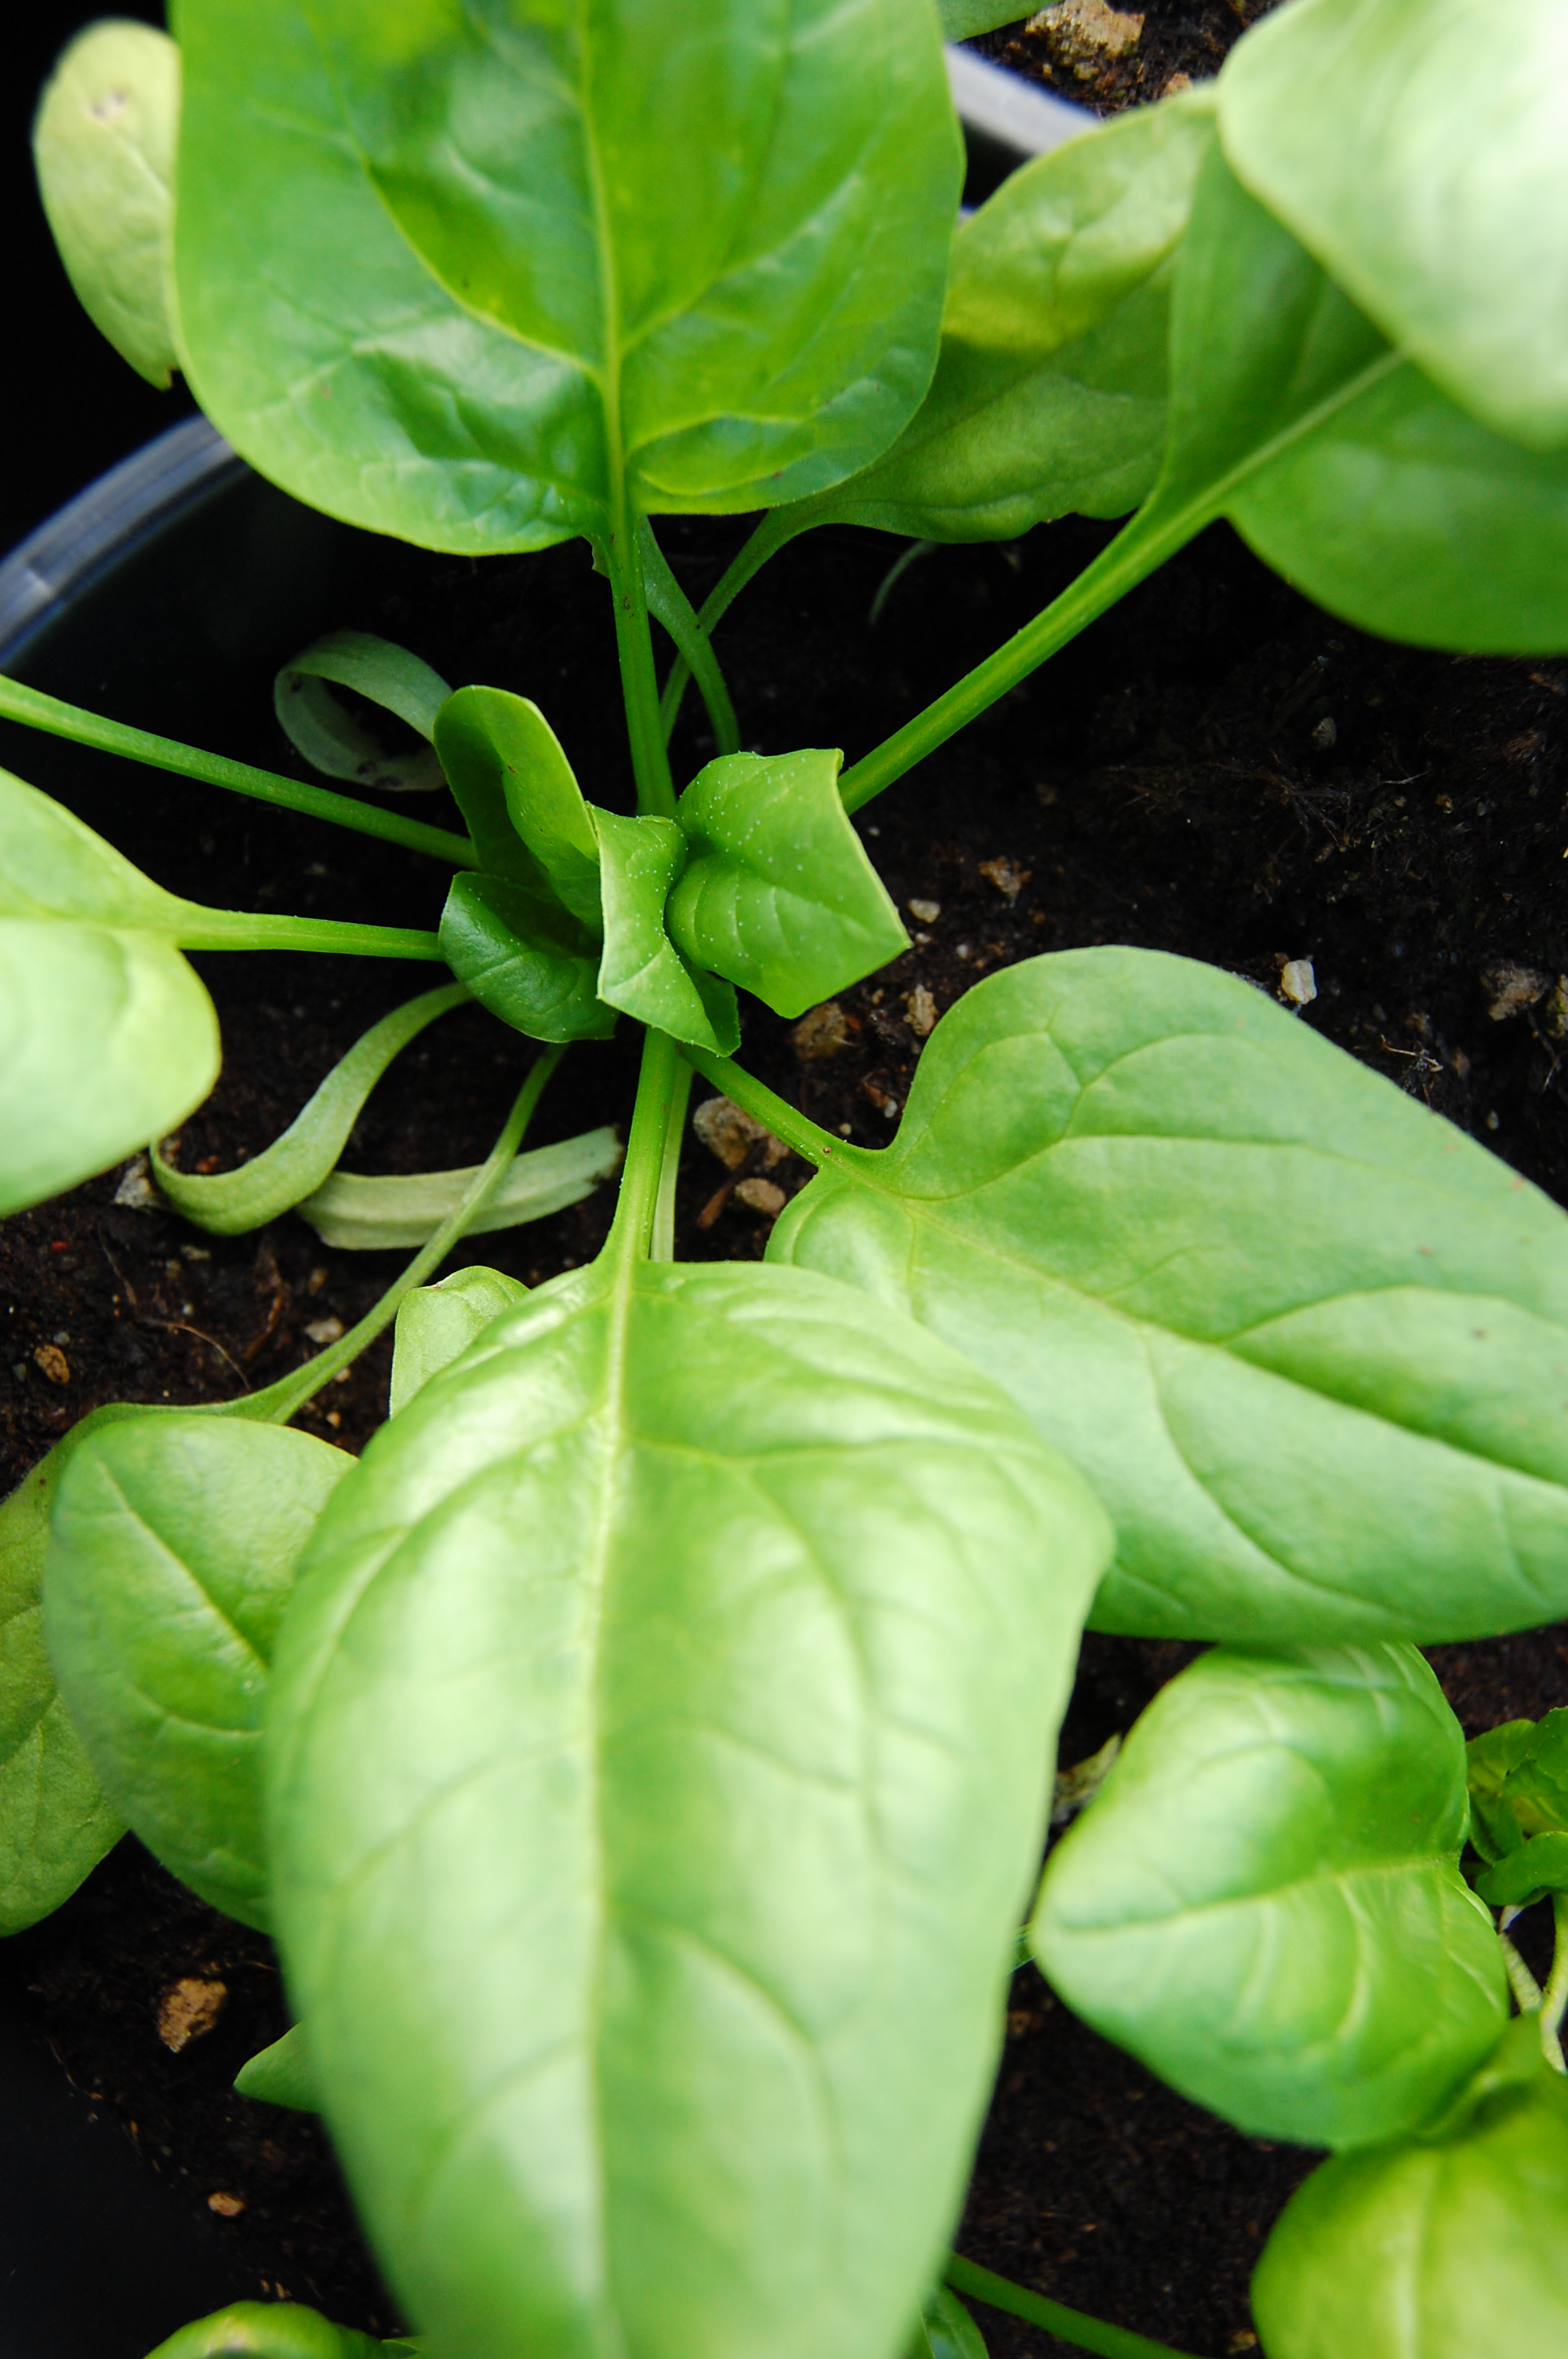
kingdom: Plantae
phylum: Tracheophyta
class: Magnoliopsida
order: Caryophyllales
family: Amaranthaceae
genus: Spinacia
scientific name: Spinacia oleracea
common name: Spinach
